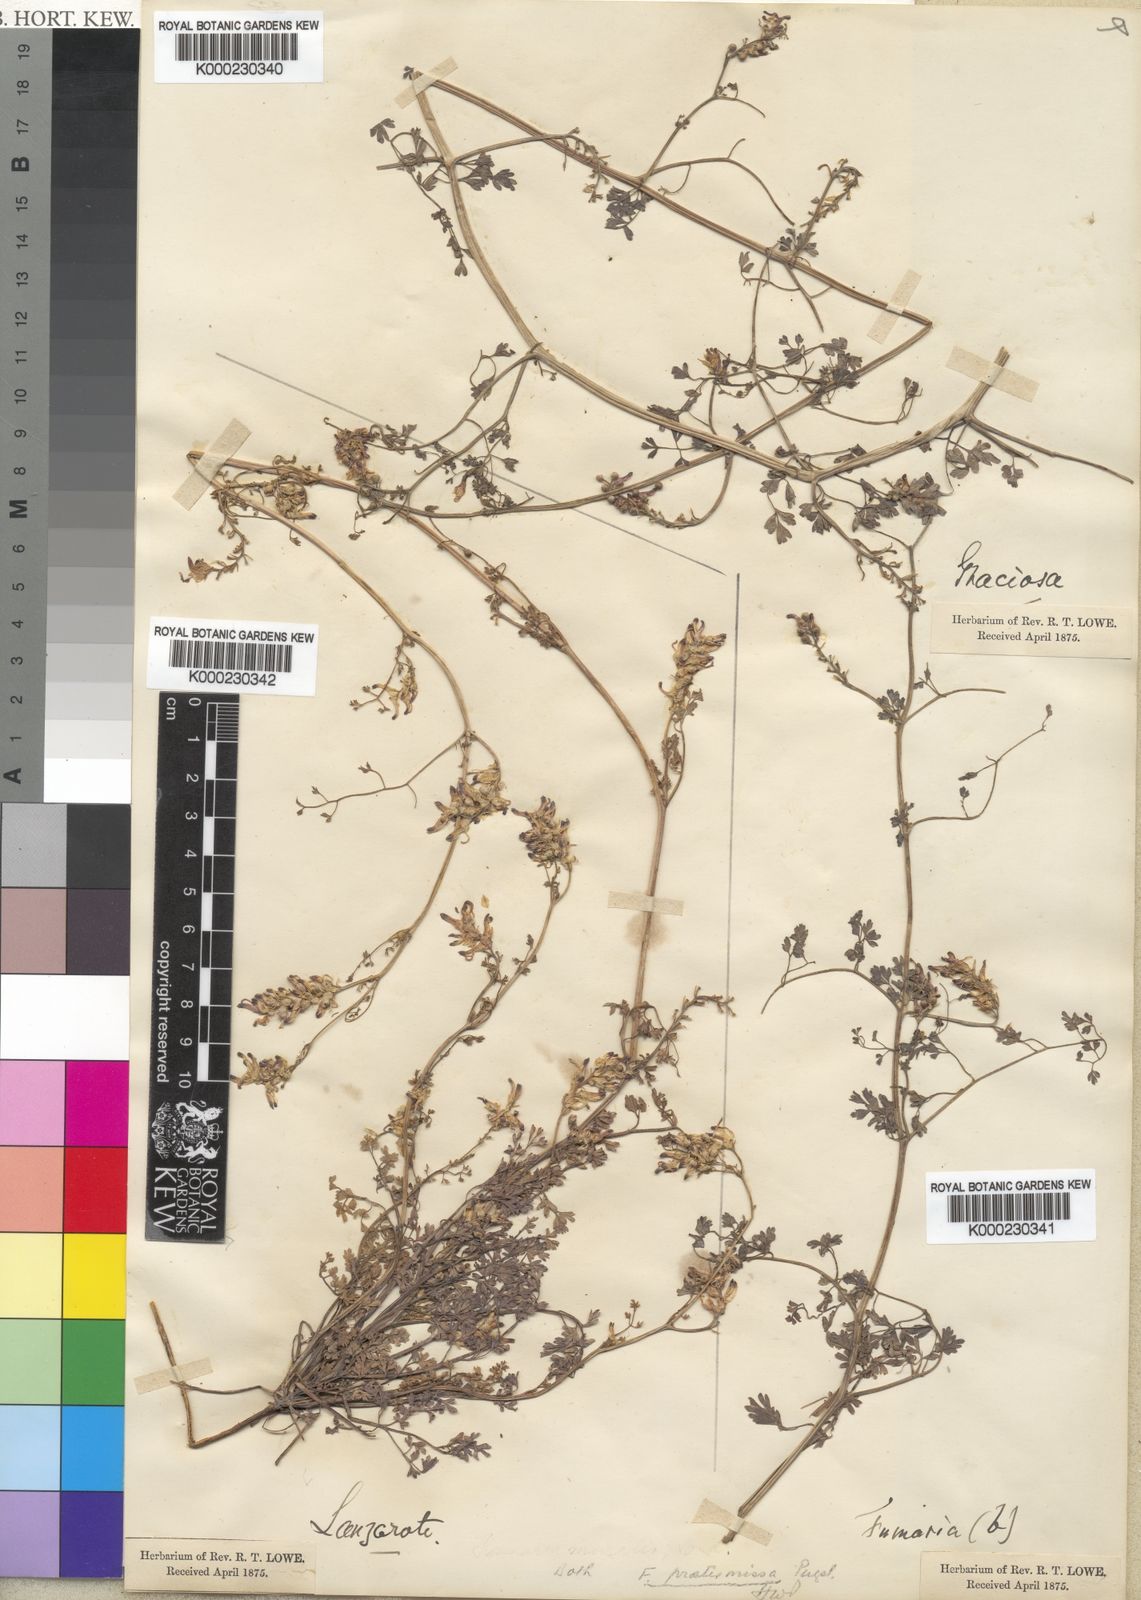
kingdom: Plantae
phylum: Tracheophyta
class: Magnoliopsida
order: Ranunculales
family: Papaveraceae
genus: Fumaria
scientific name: Fumaria montana
